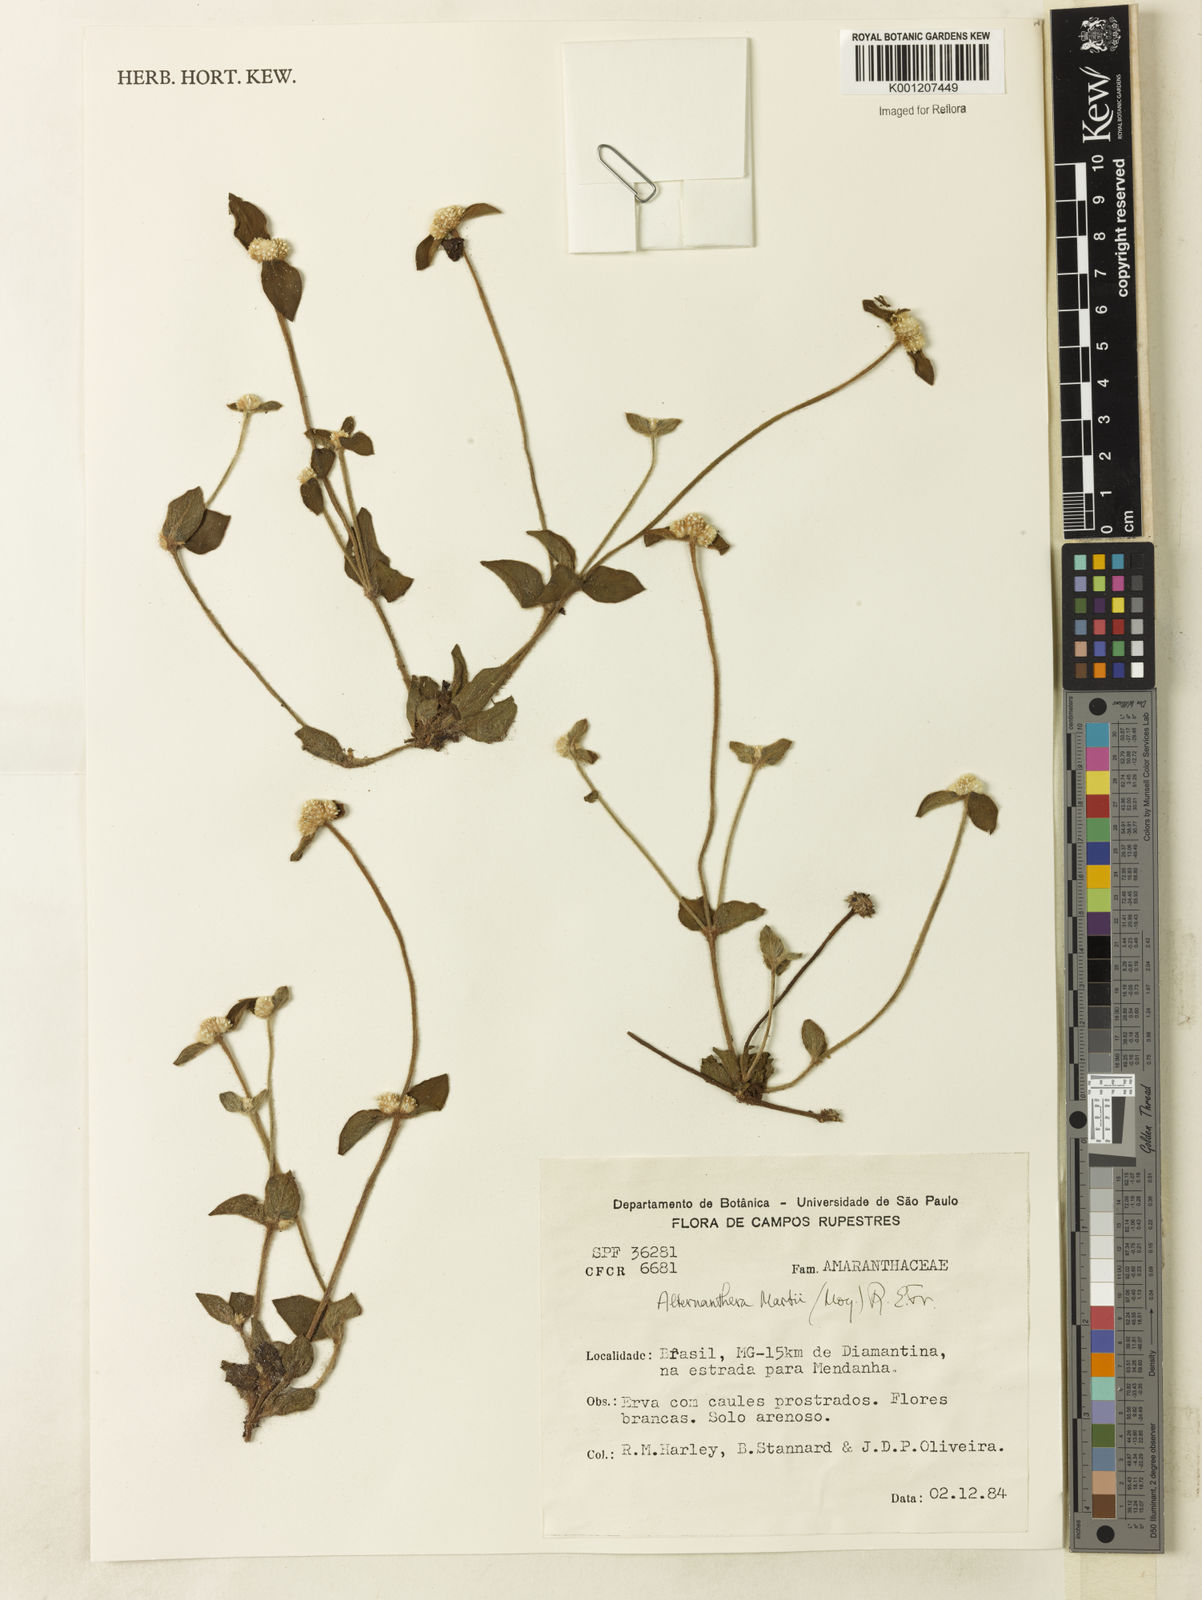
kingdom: Plantae
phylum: Tracheophyta
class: Magnoliopsida
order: Caryophyllales
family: Amaranthaceae
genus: Alternanthera
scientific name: Alternanthera martii
